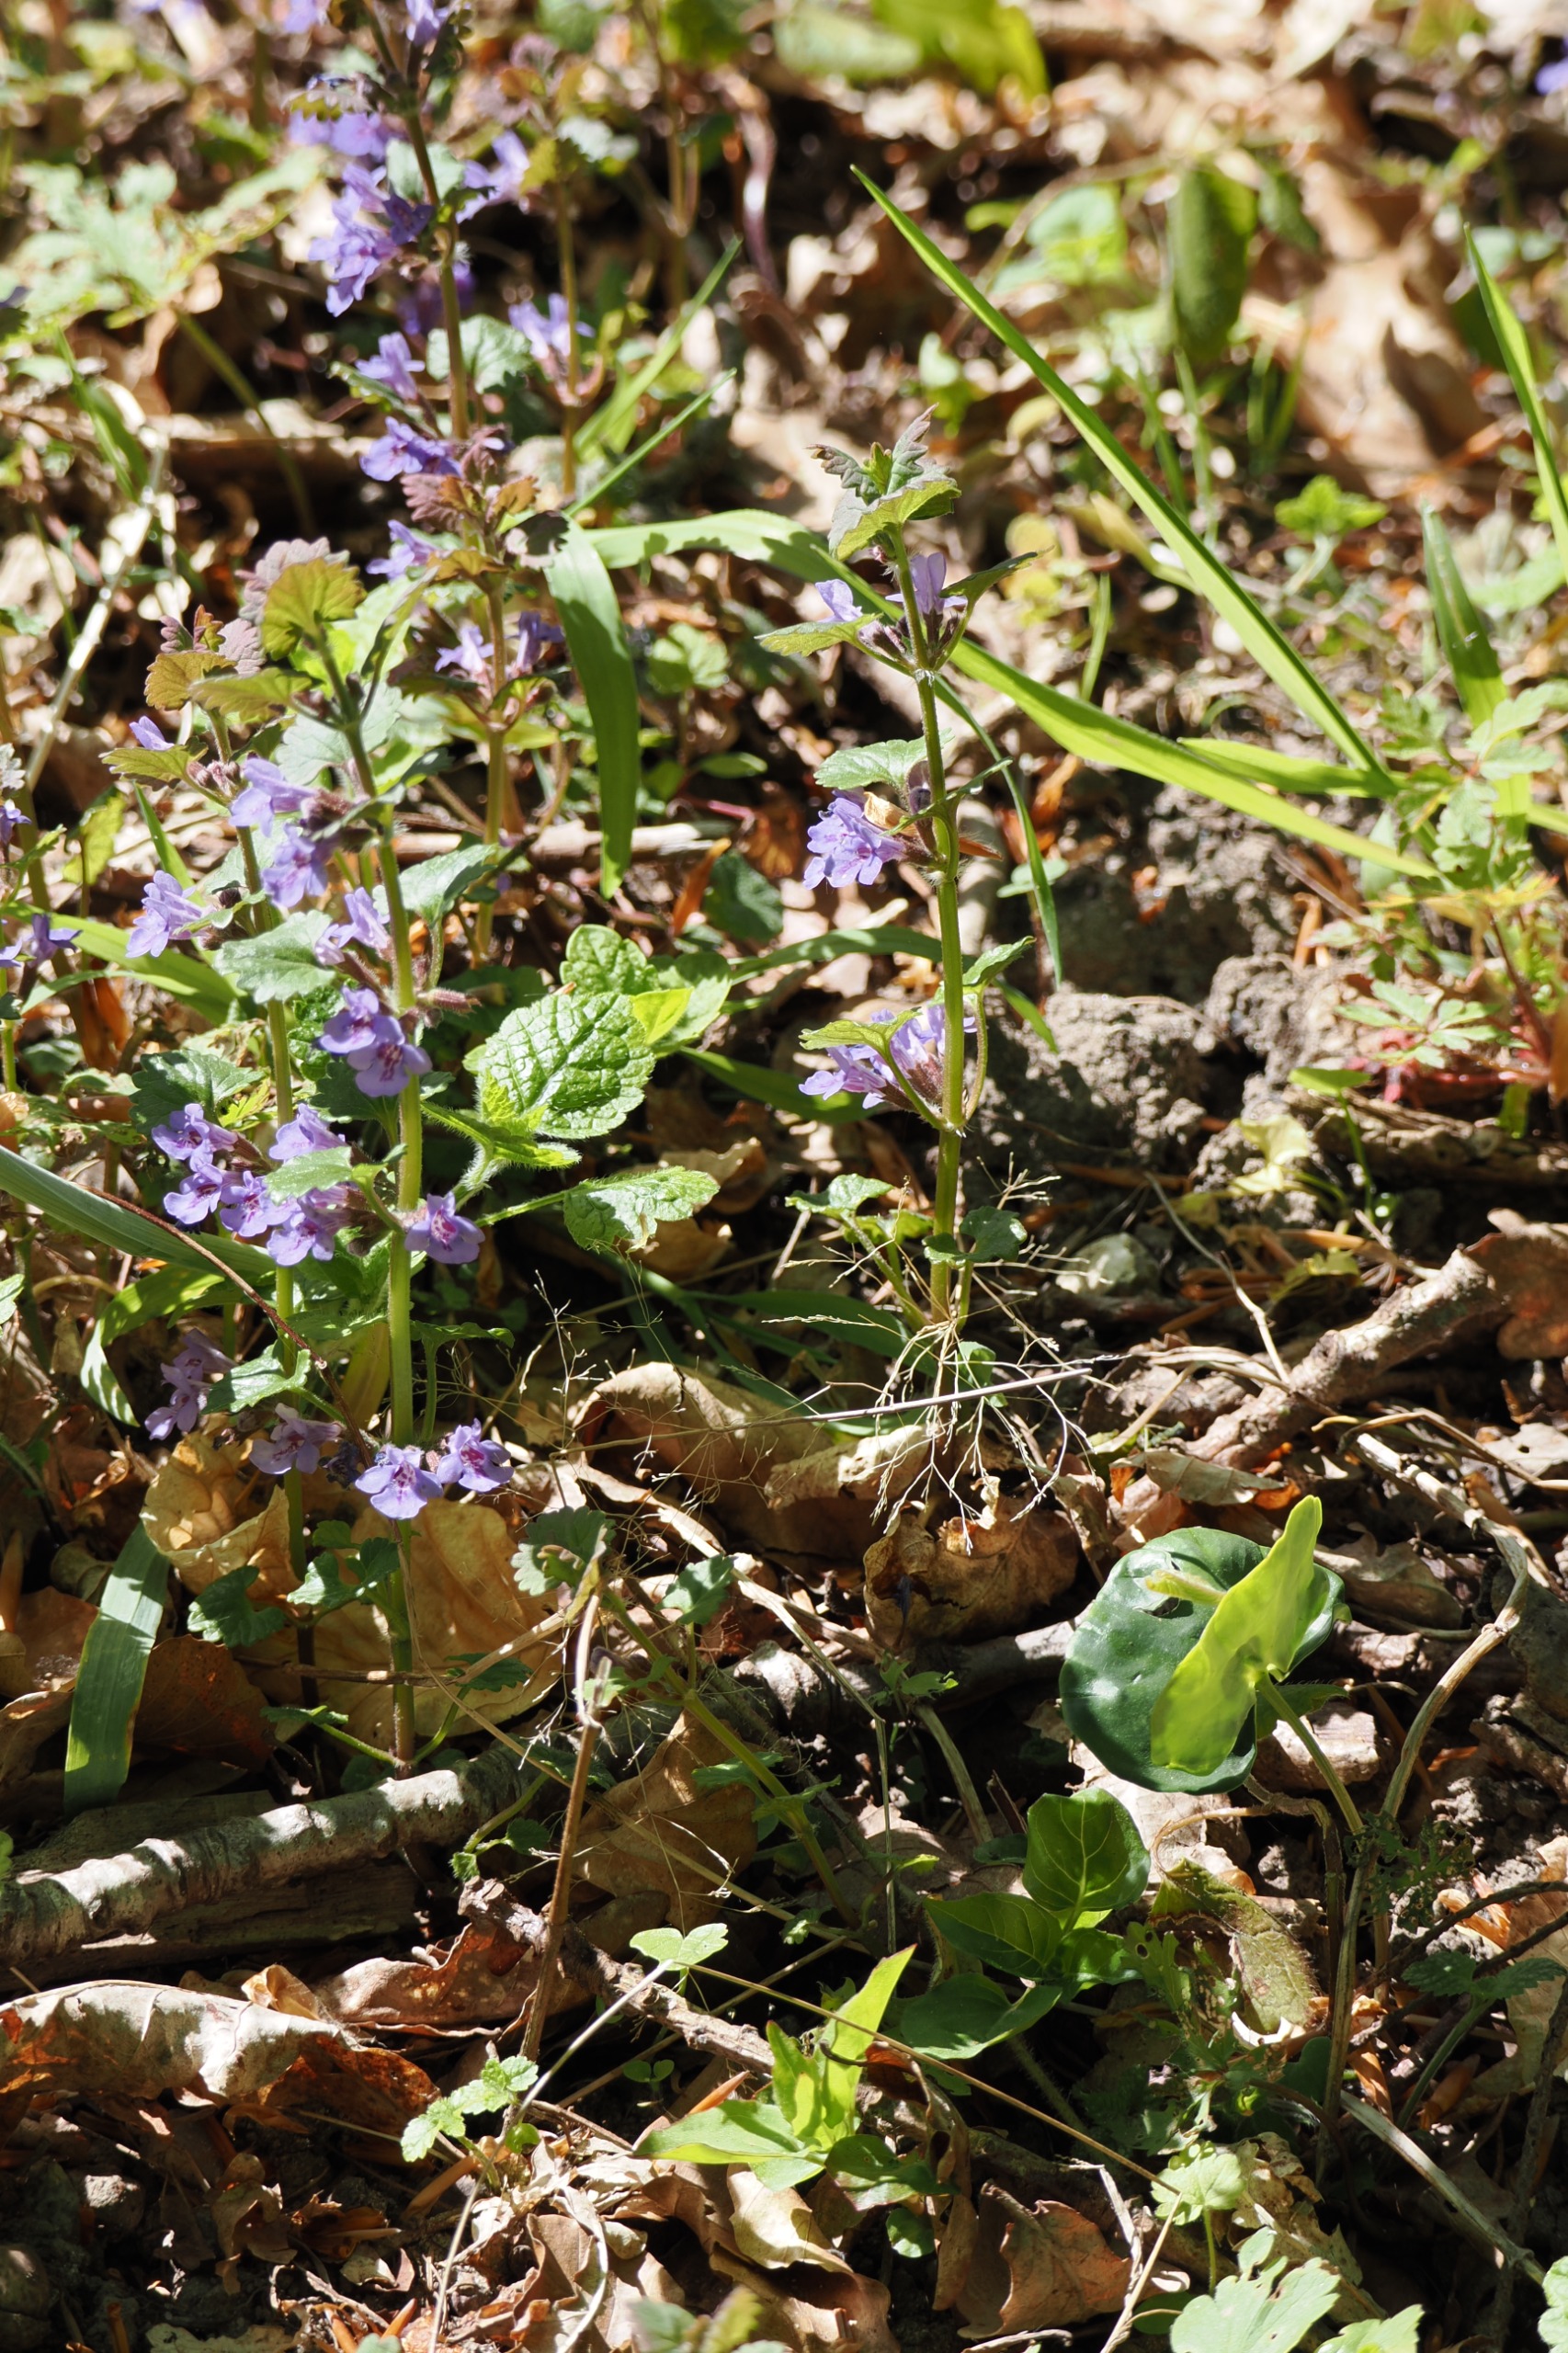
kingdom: Plantae
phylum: Tracheophyta
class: Magnoliopsida
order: Lamiales
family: Lamiaceae
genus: Glechoma
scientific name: Glechoma hederacea
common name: Korsknap
